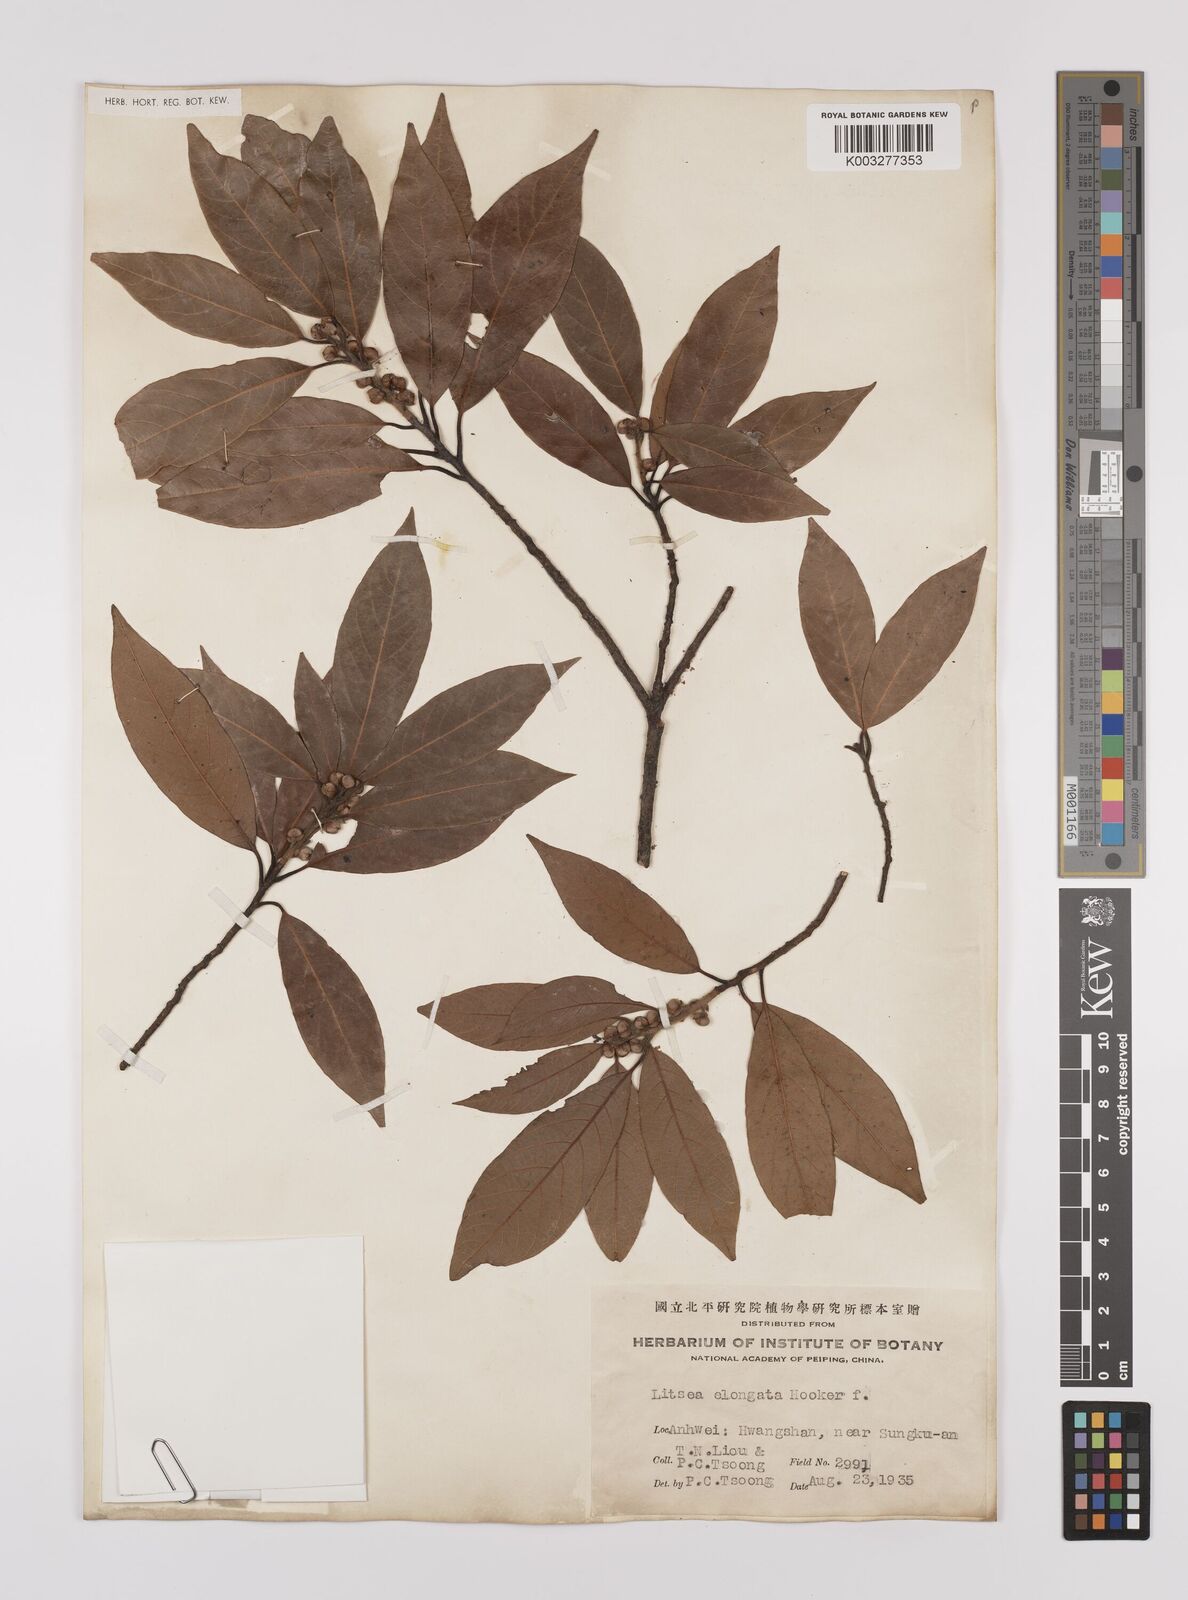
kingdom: Plantae
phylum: Tracheophyta
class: Magnoliopsida
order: Laurales
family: Lauraceae
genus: Litsea
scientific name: Litsea elongata
